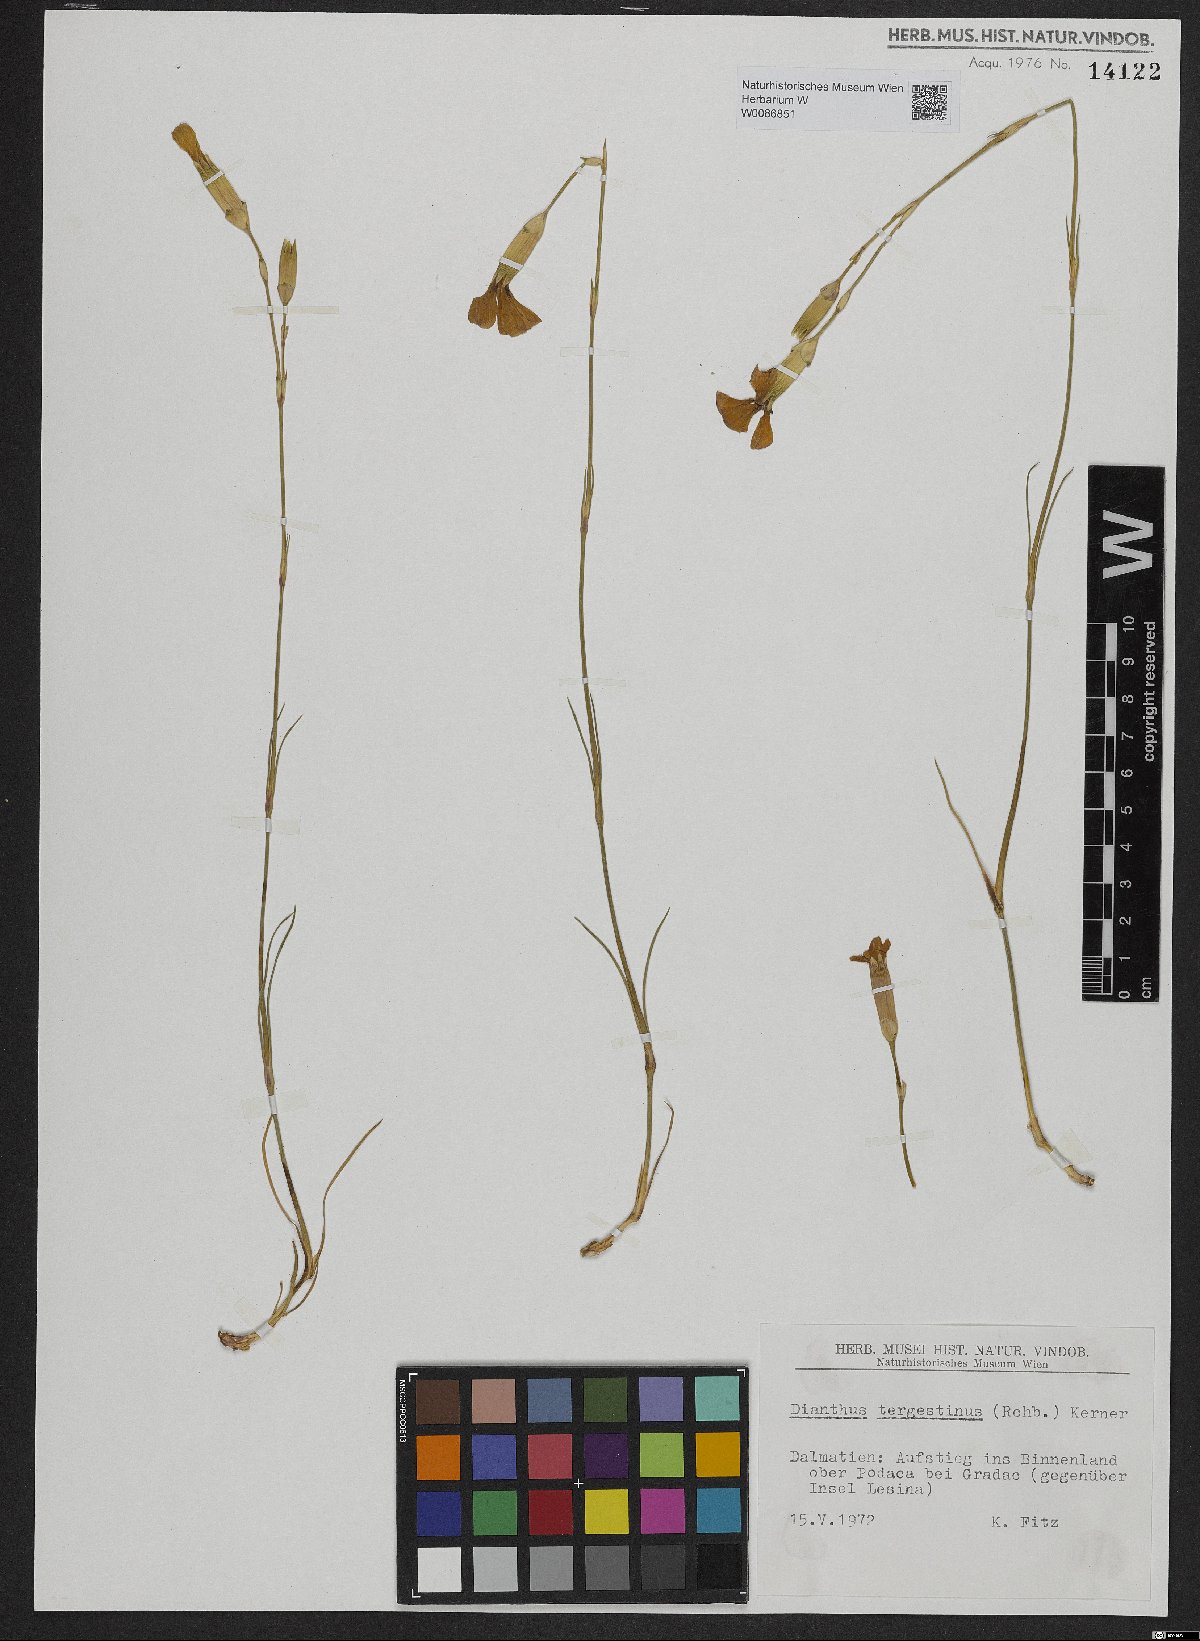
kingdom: Plantae
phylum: Tracheophyta
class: Magnoliopsida
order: Caryophyllales
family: Caryophyllaceae
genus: Dianthus
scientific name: Dianthus sylvestris
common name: Wood pink
